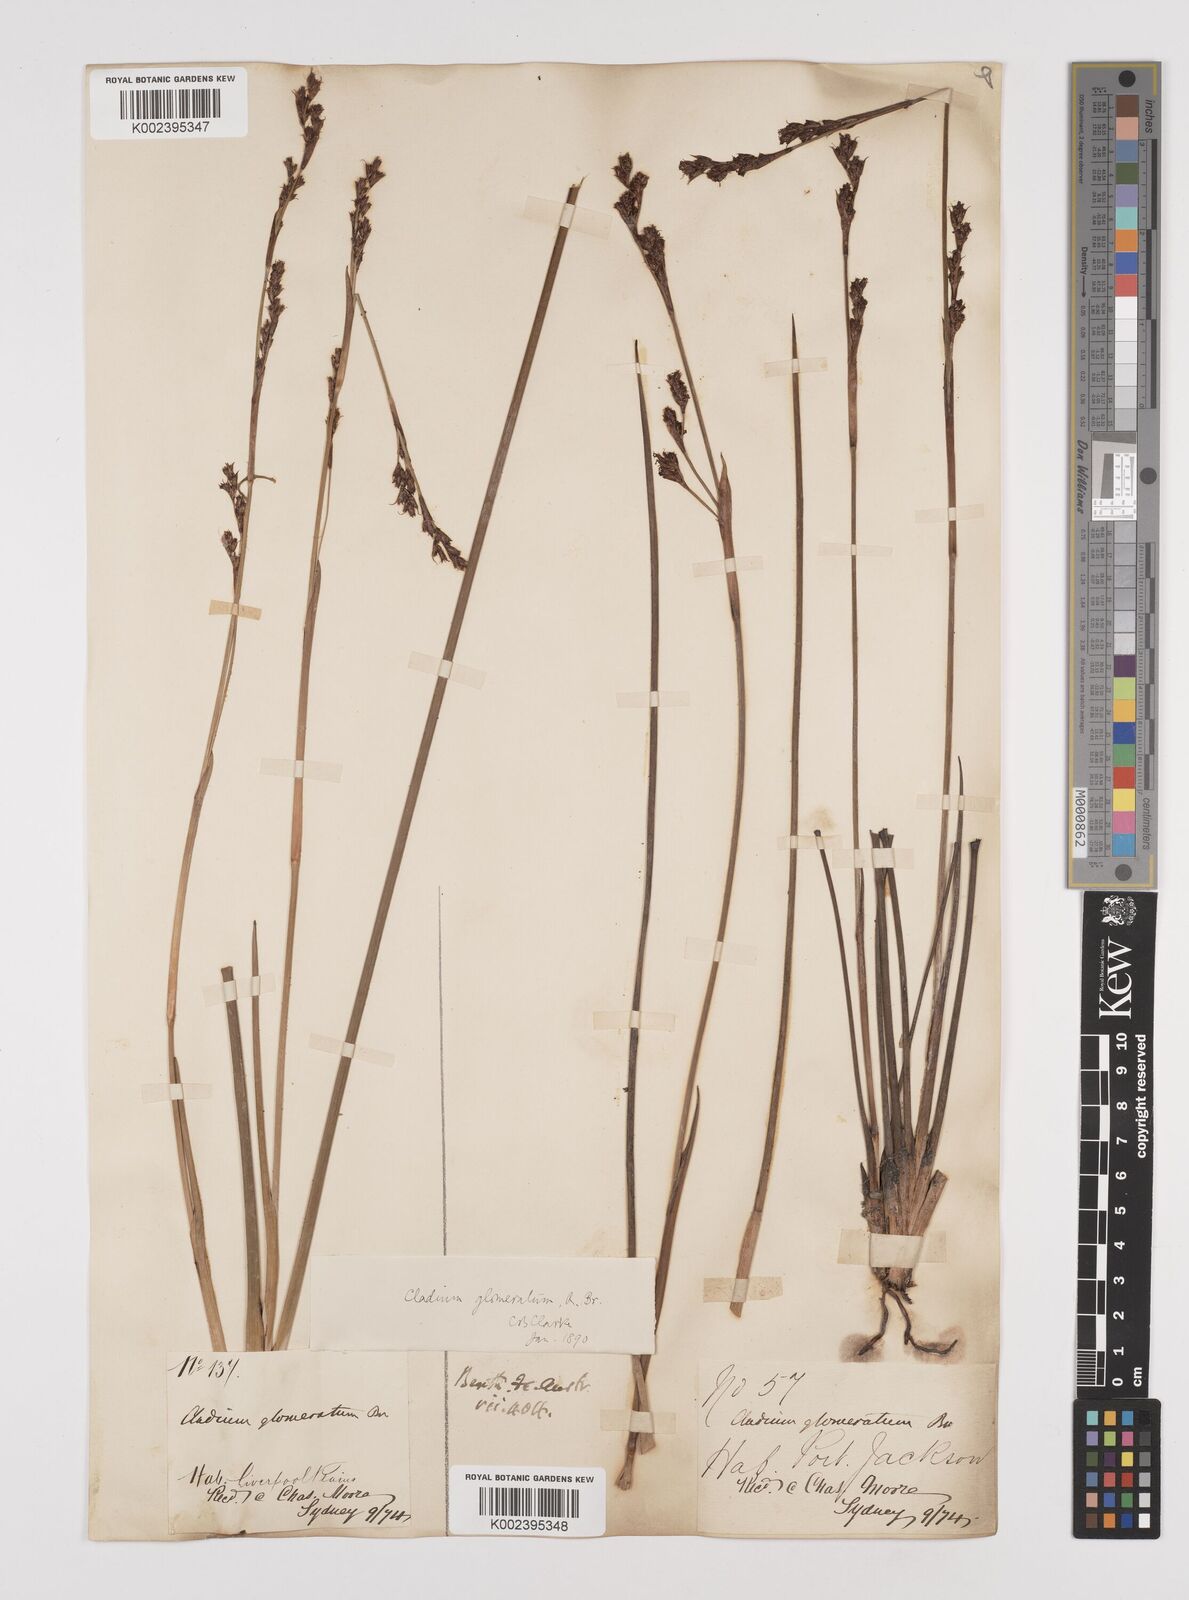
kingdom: Plantae
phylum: Tracheophyta
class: Liliopsida
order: Poales
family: Cyperaceae
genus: Machaerina
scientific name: Machaerina rubiginosa
